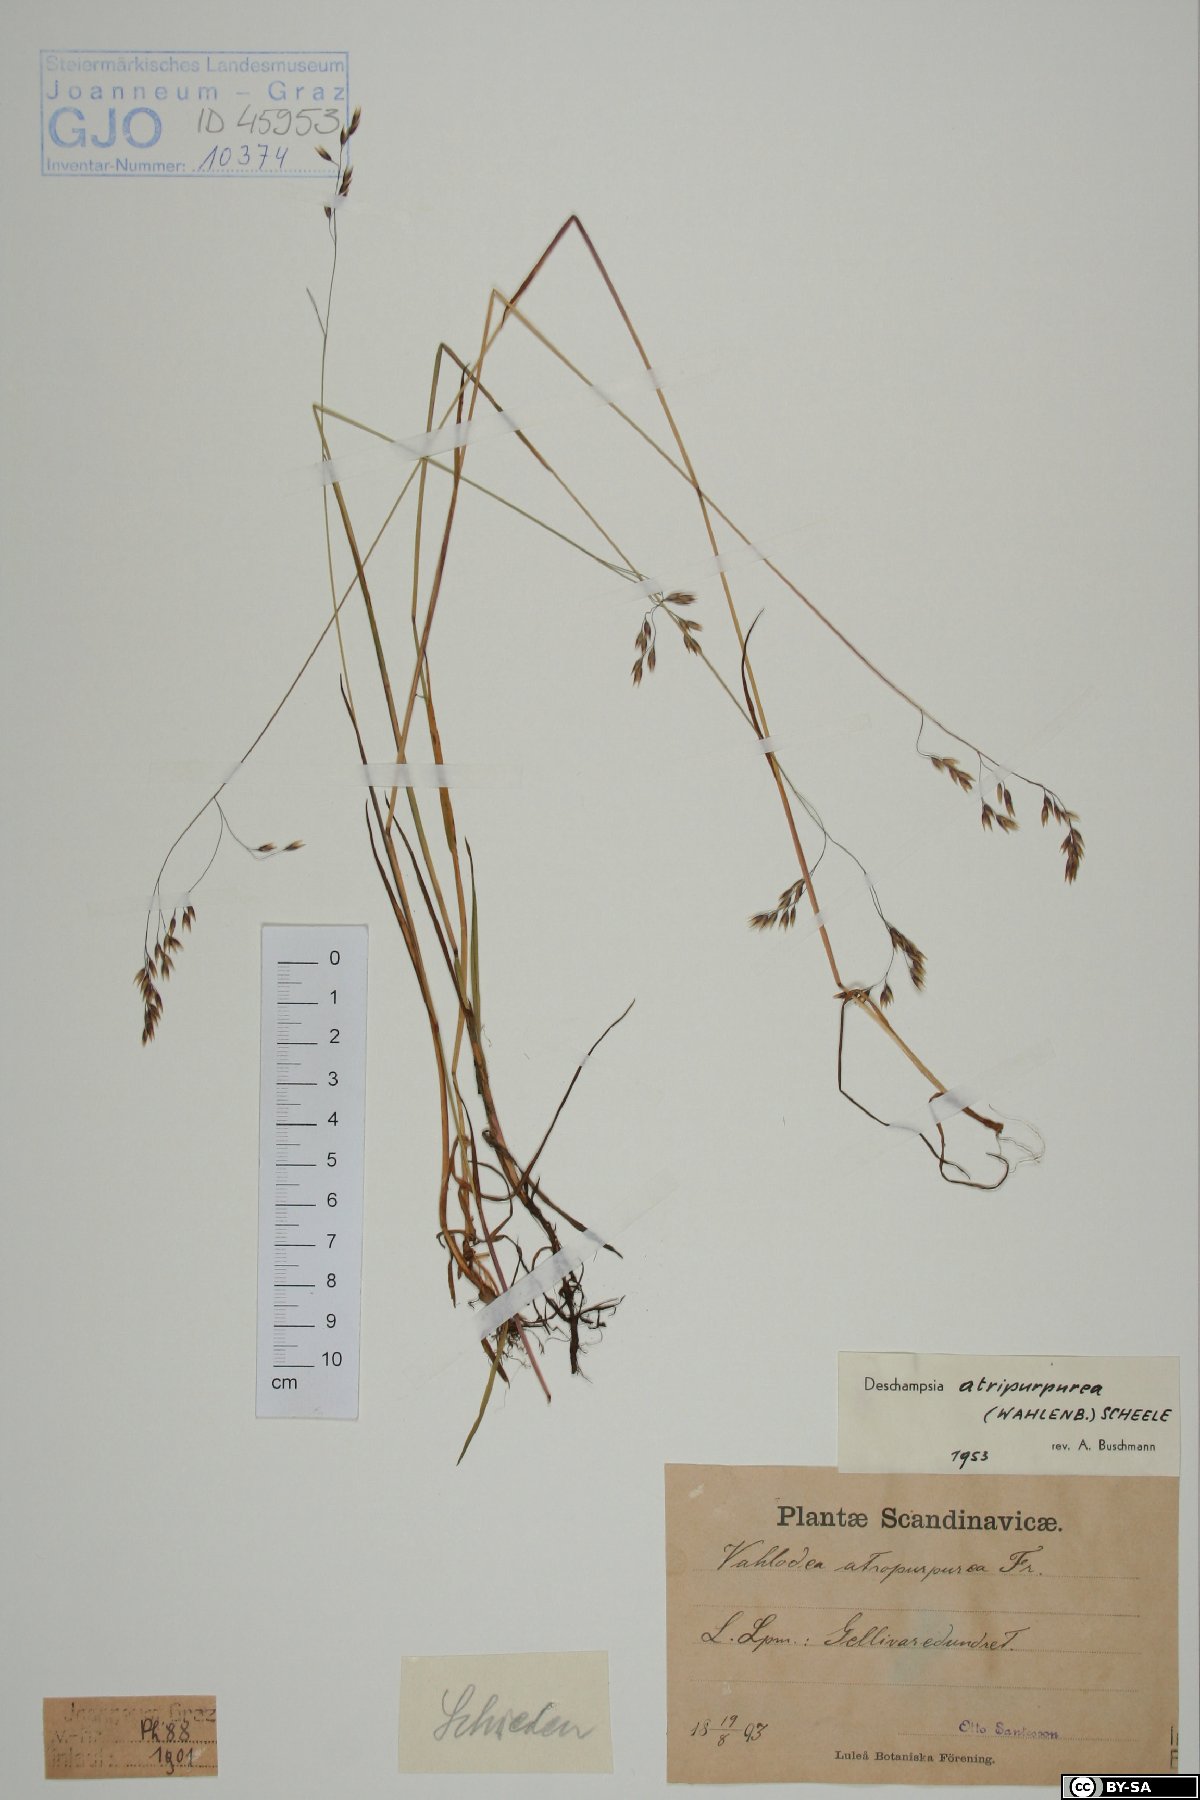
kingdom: Plantae
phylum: Tracheophyta
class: Liliopsida
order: Poales
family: Poaceae
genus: Vahlodea
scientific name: Vahlodea atropurpurea
